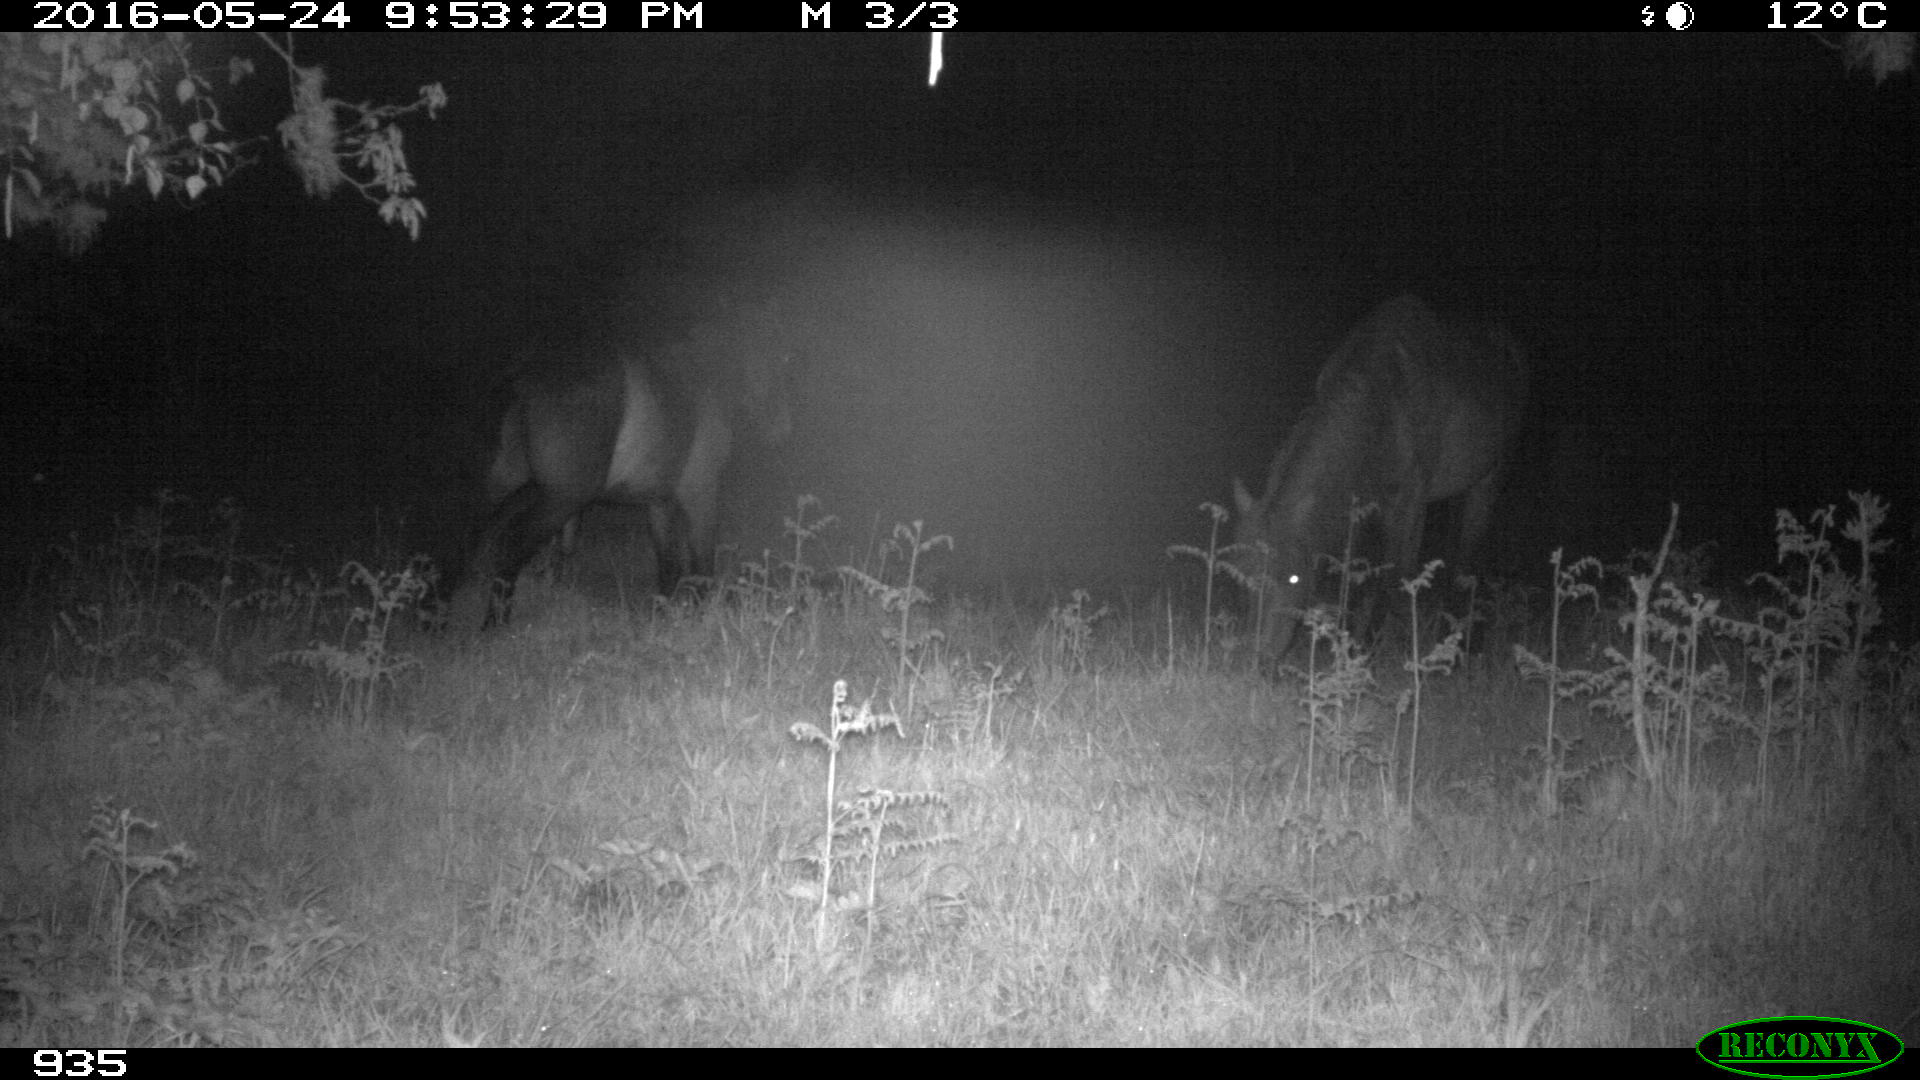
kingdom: Animalia
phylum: Chordata
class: Mammalia
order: Perissodactyla
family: Equidae
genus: Equus
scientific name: Equus caballus
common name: Horse
